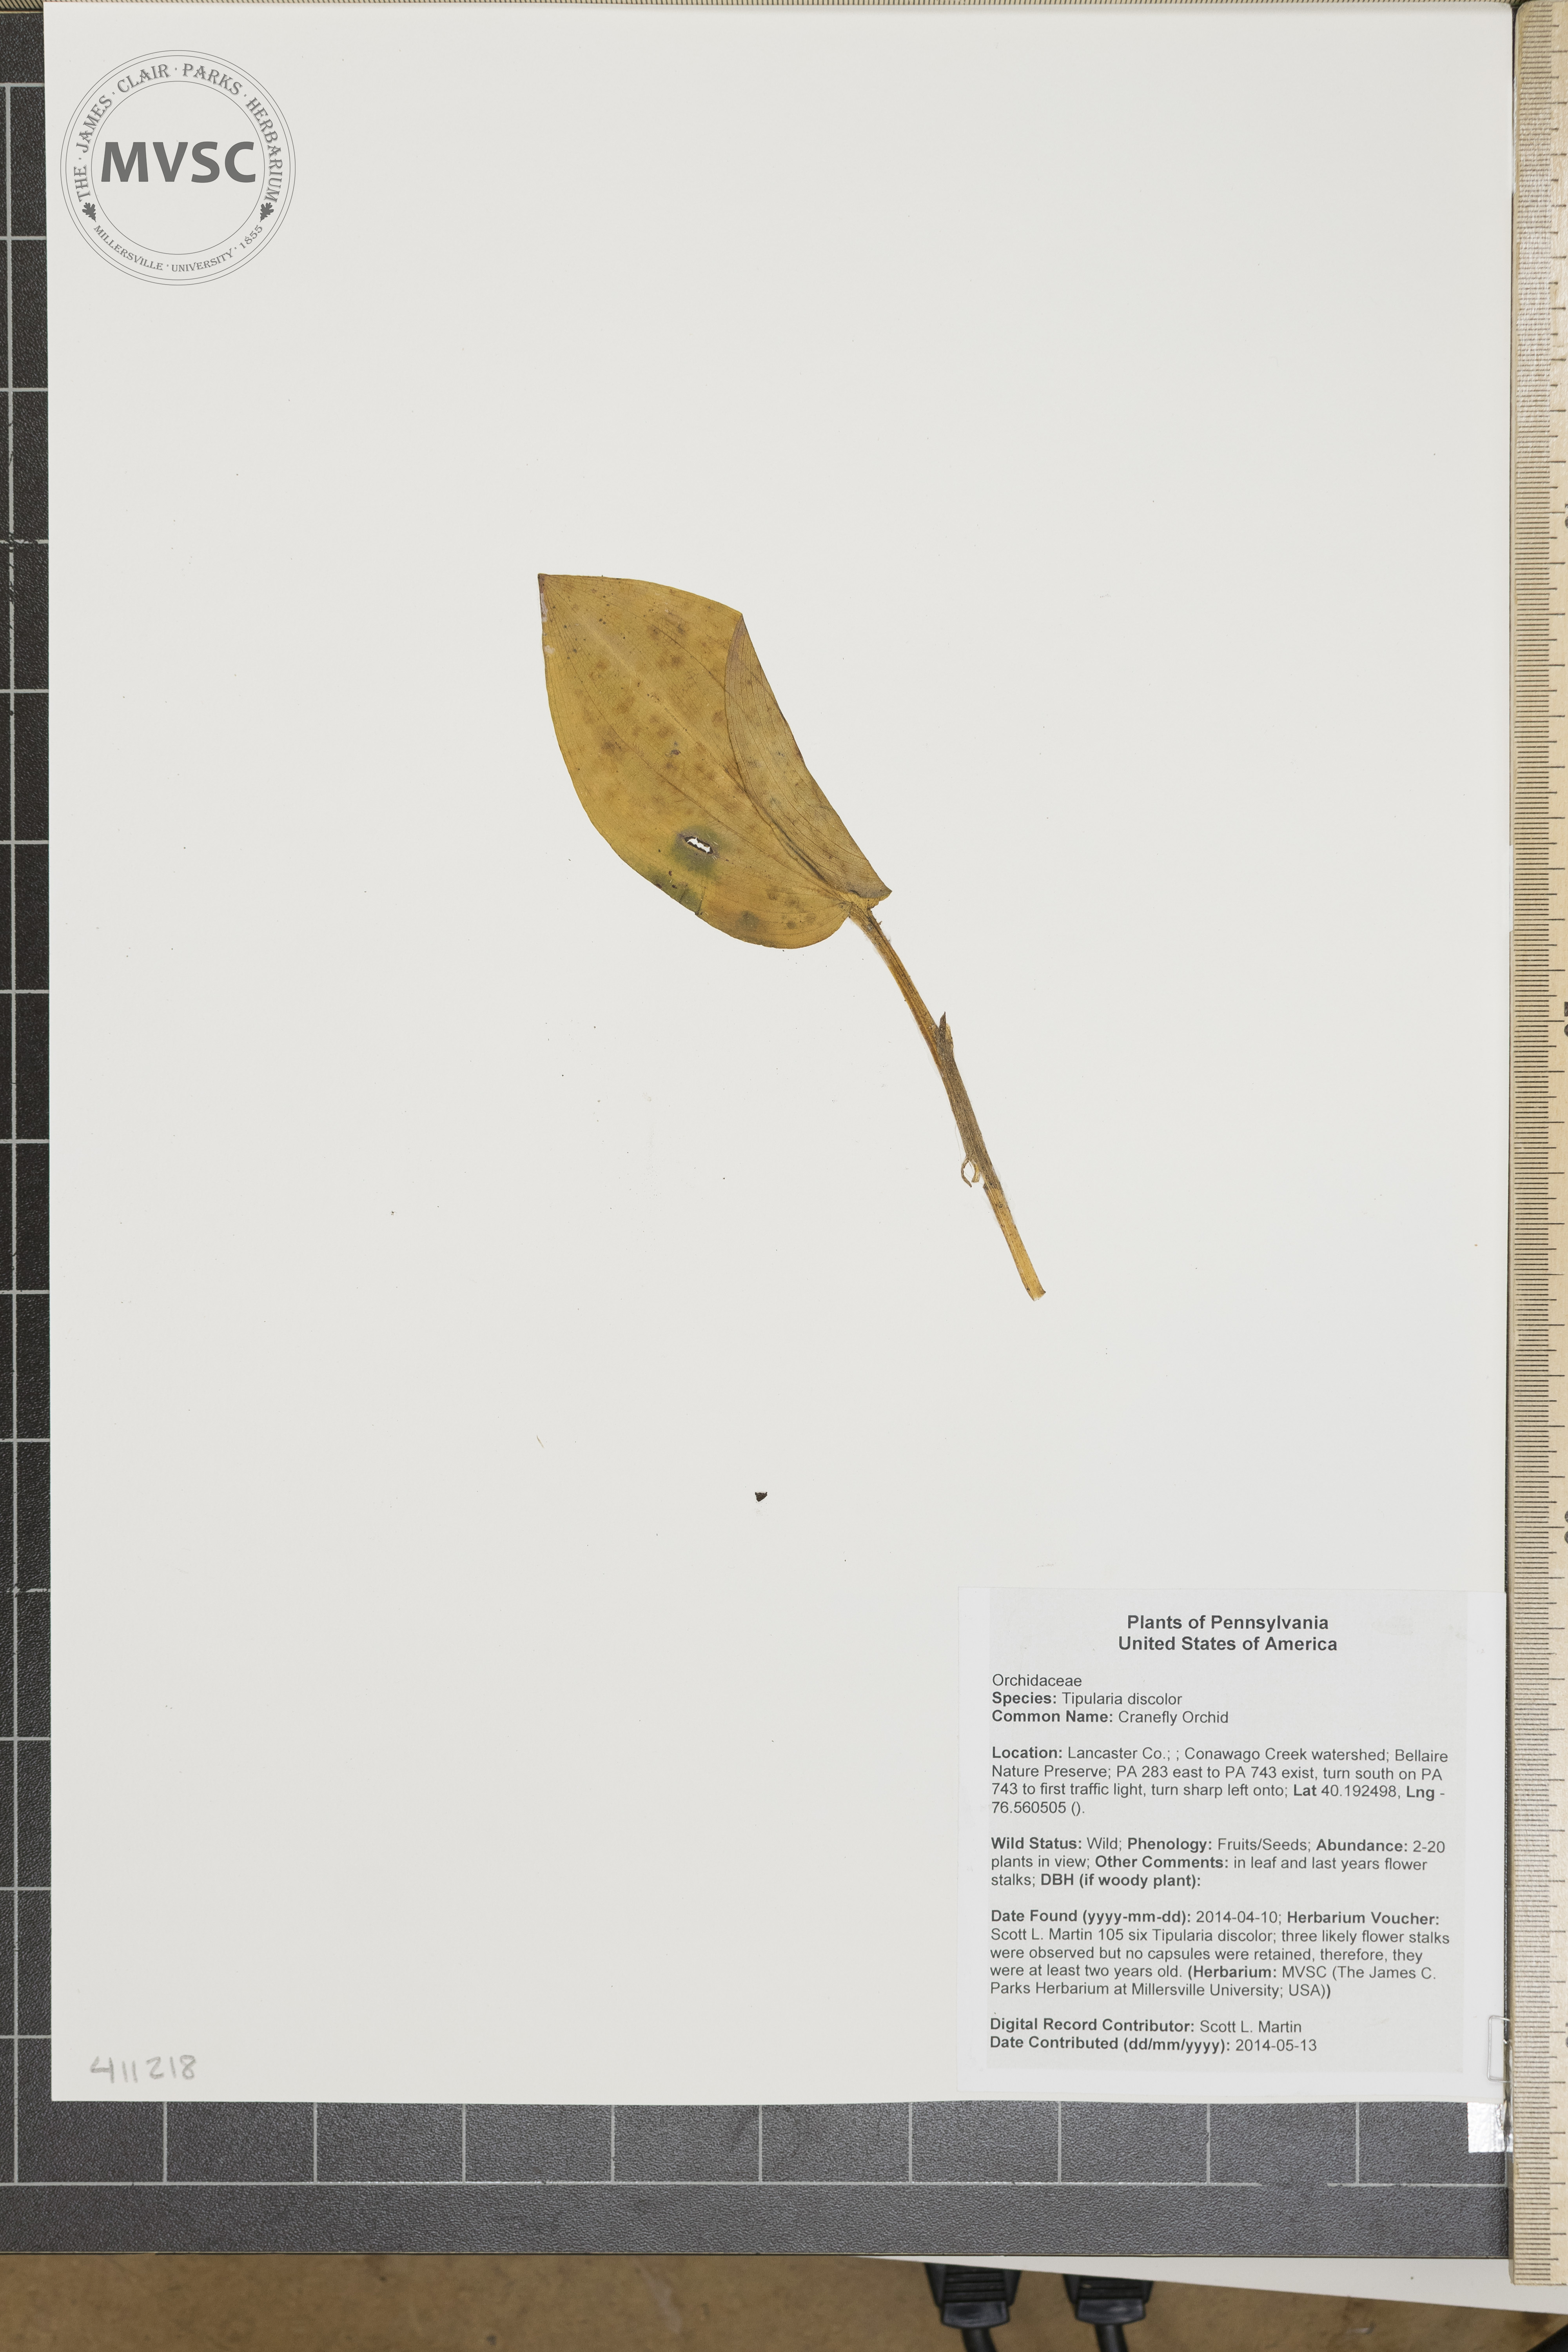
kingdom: Plantae
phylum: Tracheophyta
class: Liliopsida
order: Asparagales
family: Orchidaceae
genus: Tipularia
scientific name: Tipularia discolor
